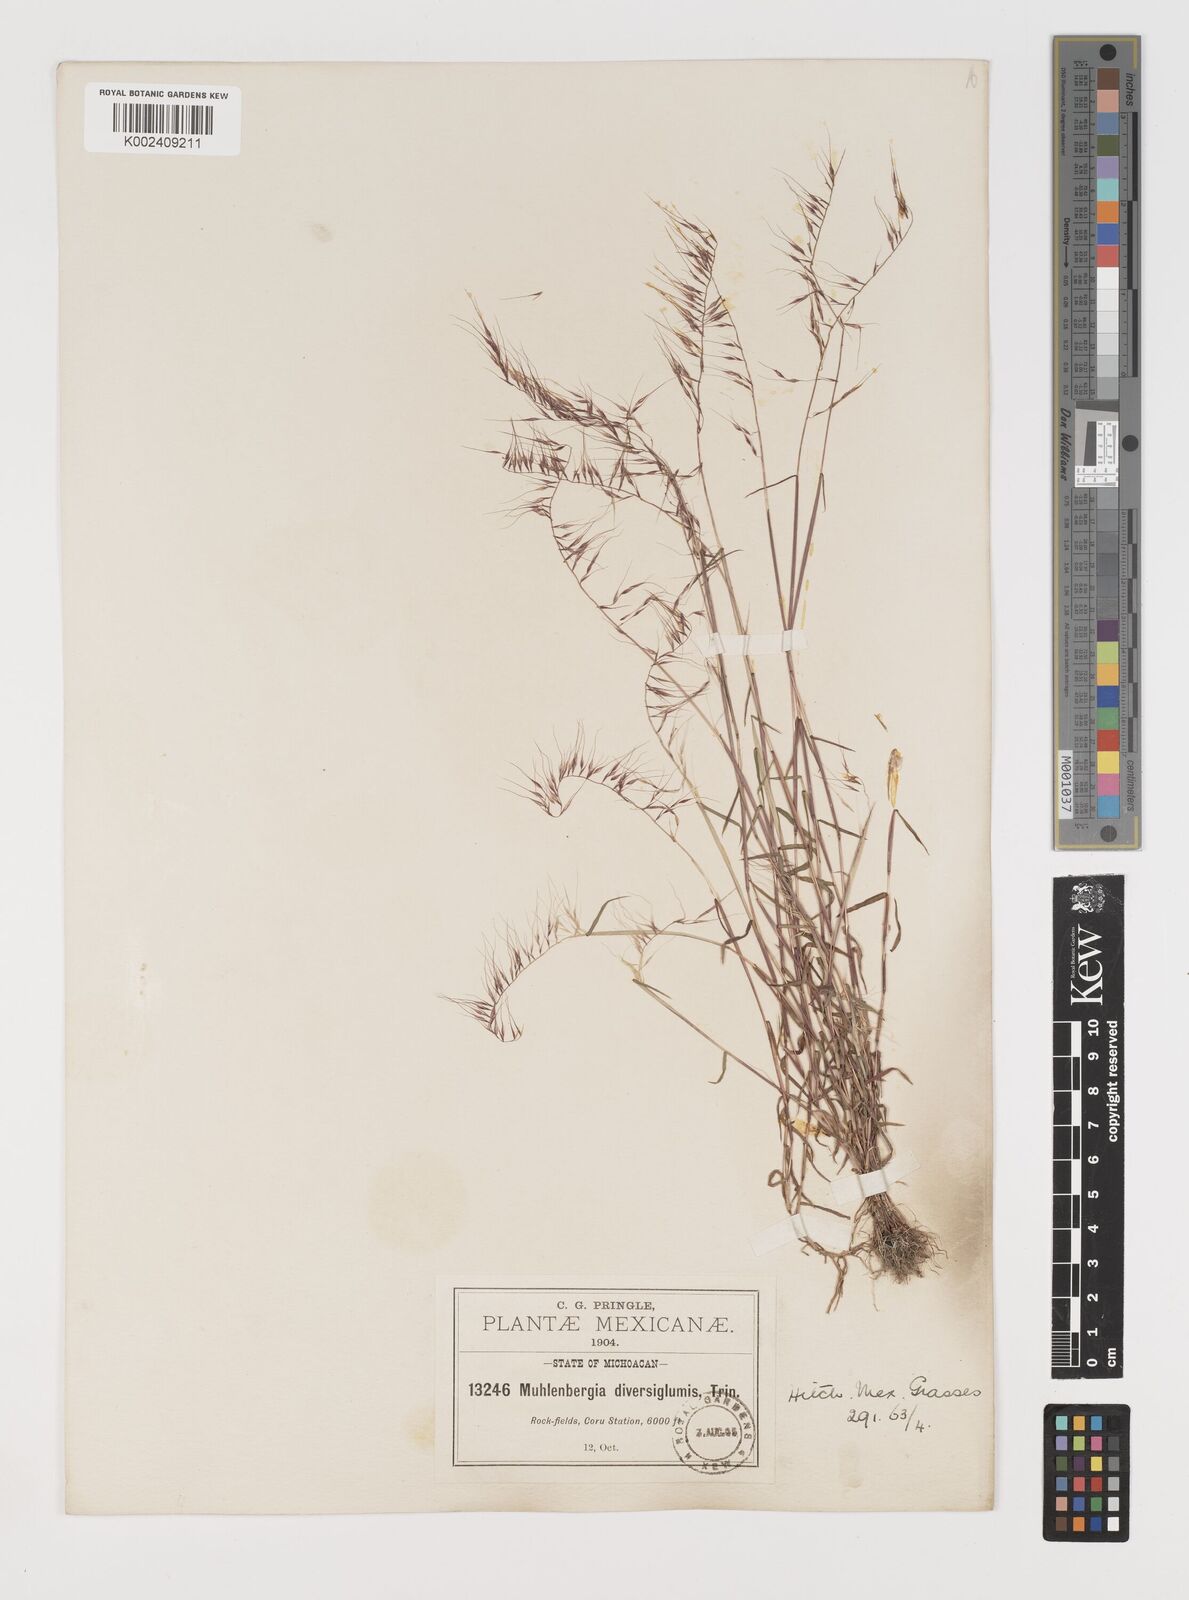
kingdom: Plantae
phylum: Tracheophyta
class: Liliopsida
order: Poales
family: Poaceae
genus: Muhlenbergia
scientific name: Muhlenbergia diversiglumis
